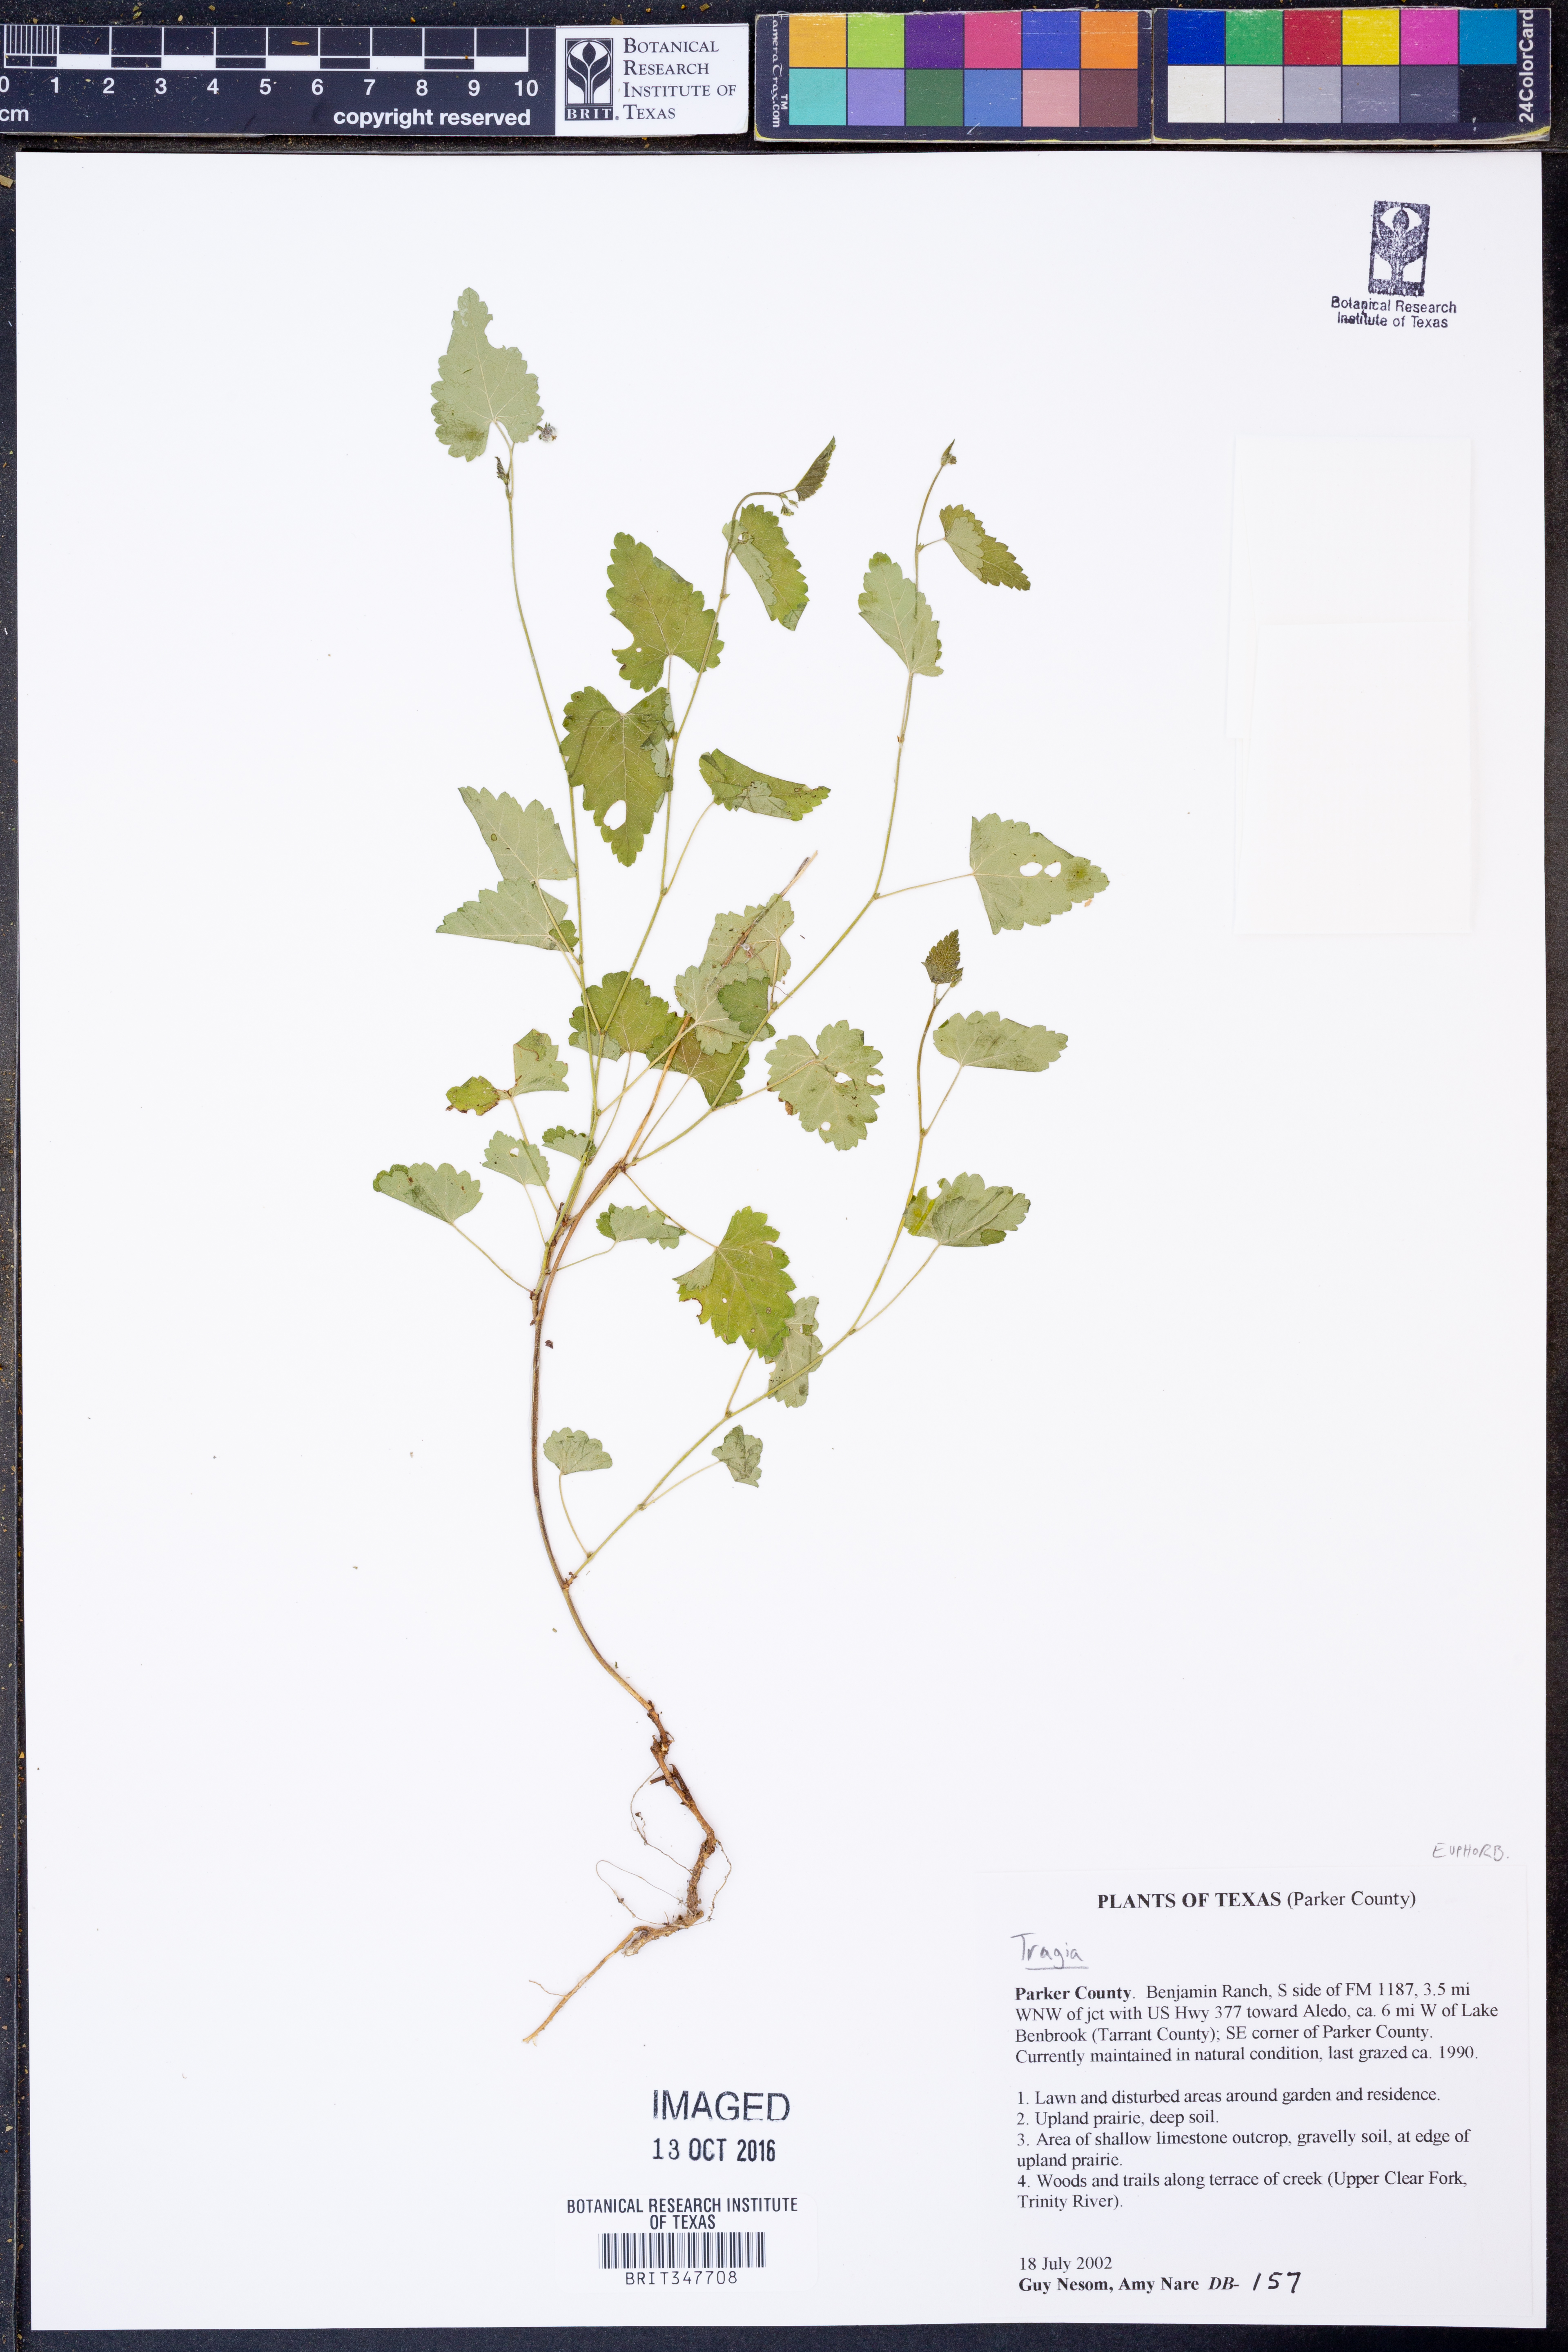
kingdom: Plantae
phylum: Tracheophyta
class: Magnoliopsida
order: Malpighiales
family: Euphorbiaceae
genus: Tragia
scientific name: Tragia
